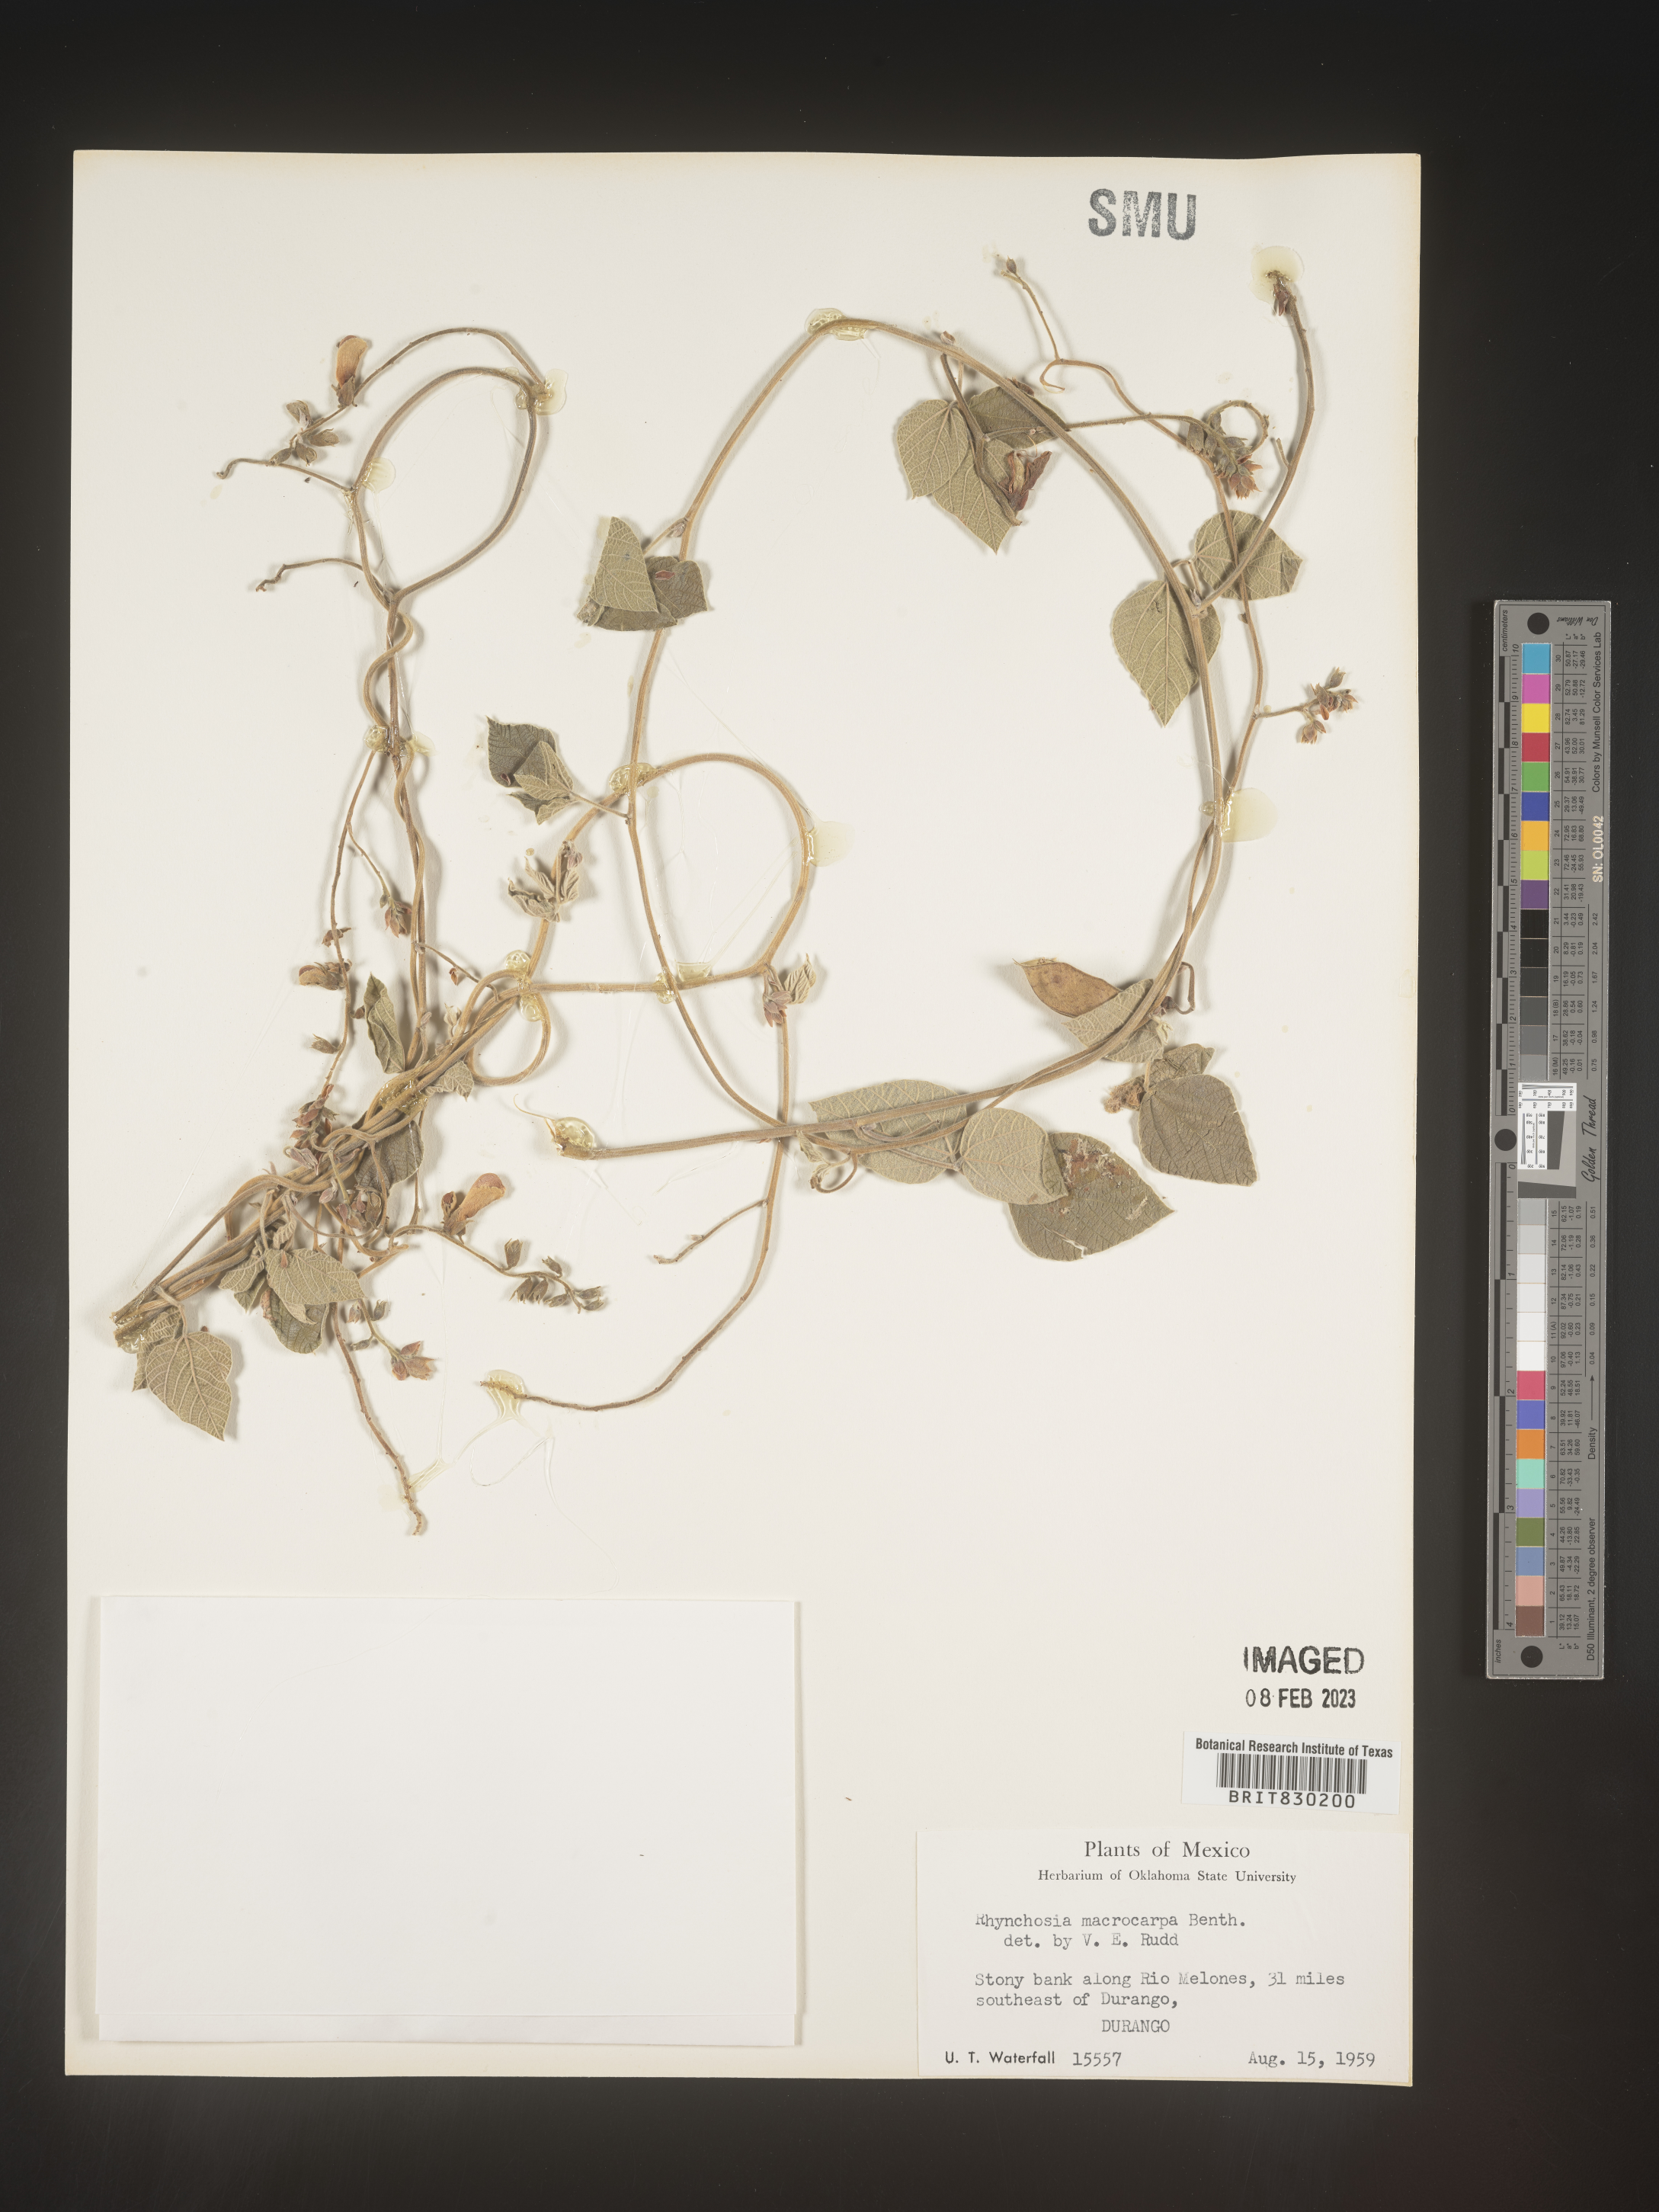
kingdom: Plantae
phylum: Tracheophyta
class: Magnoliopsida
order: Fabales
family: Fabaceae
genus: Rhynchosia
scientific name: Rhynchosia
